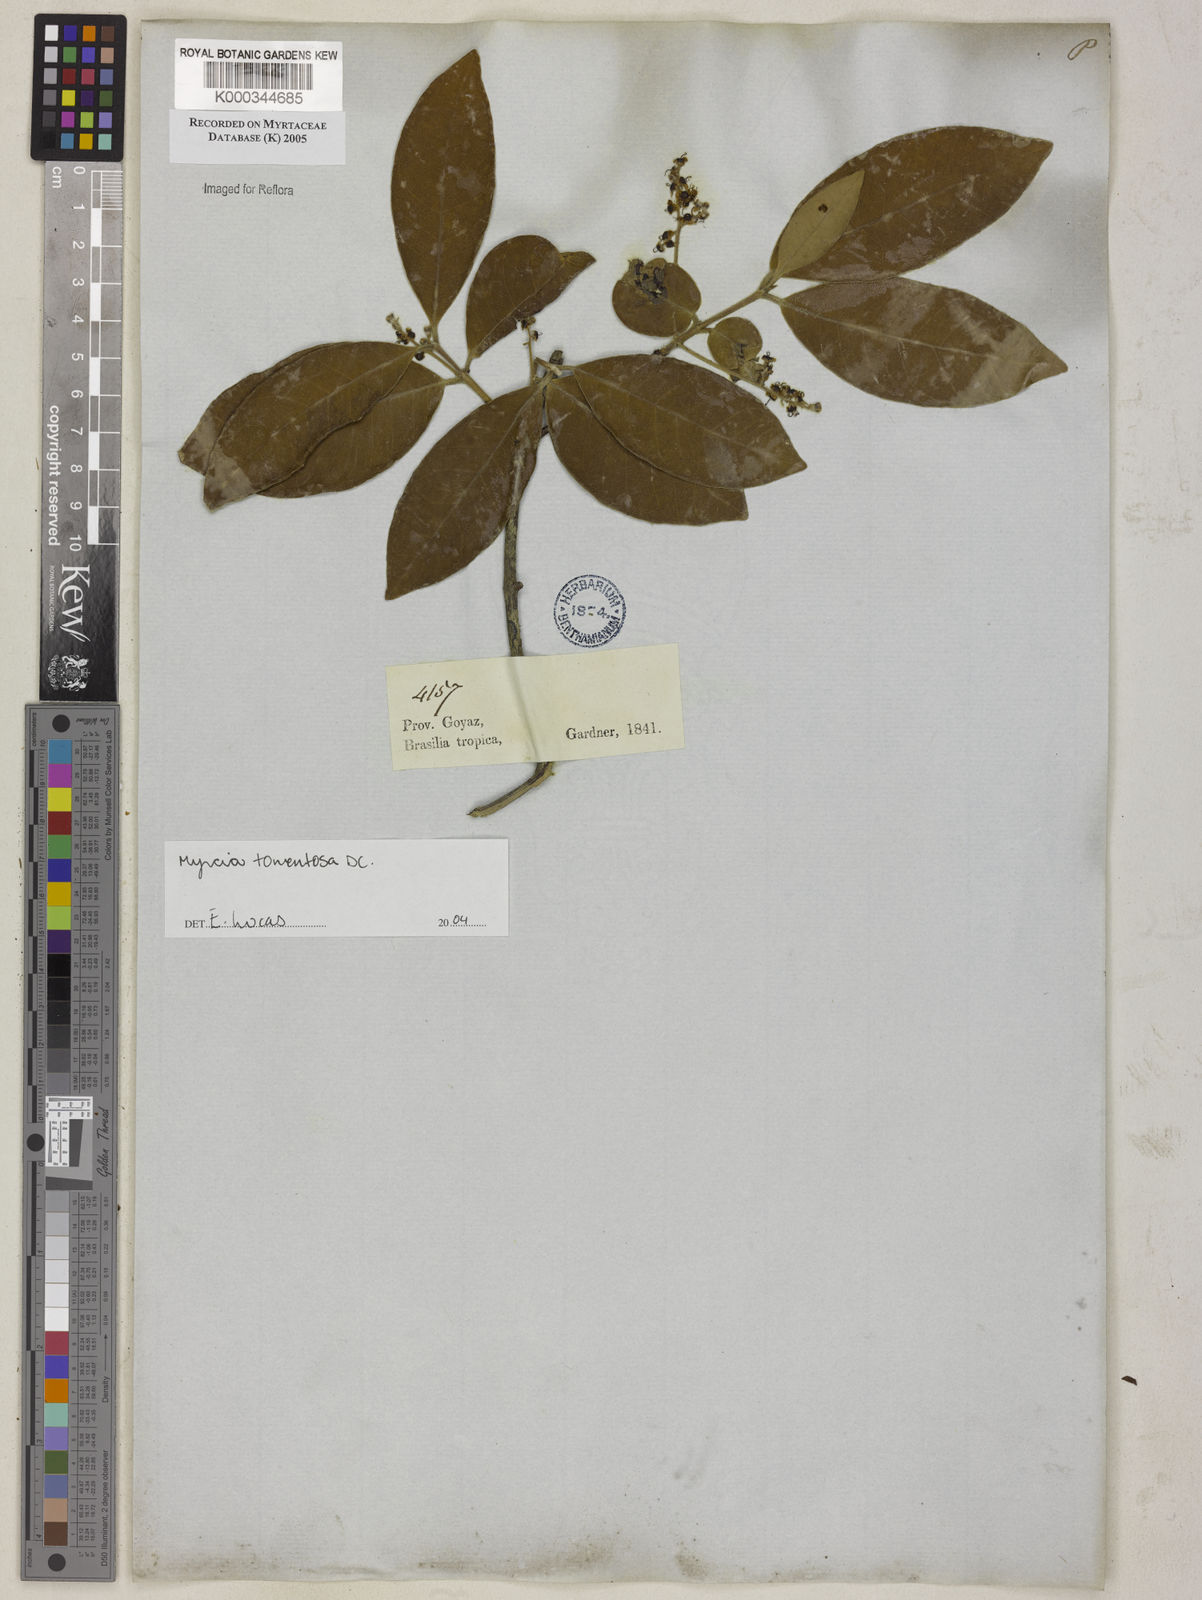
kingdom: Plantae
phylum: Tracheophyta
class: Magnoliopsida
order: Myrtales
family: Myrtaceae
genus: Myrcia
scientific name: Myrcia tomentosa
